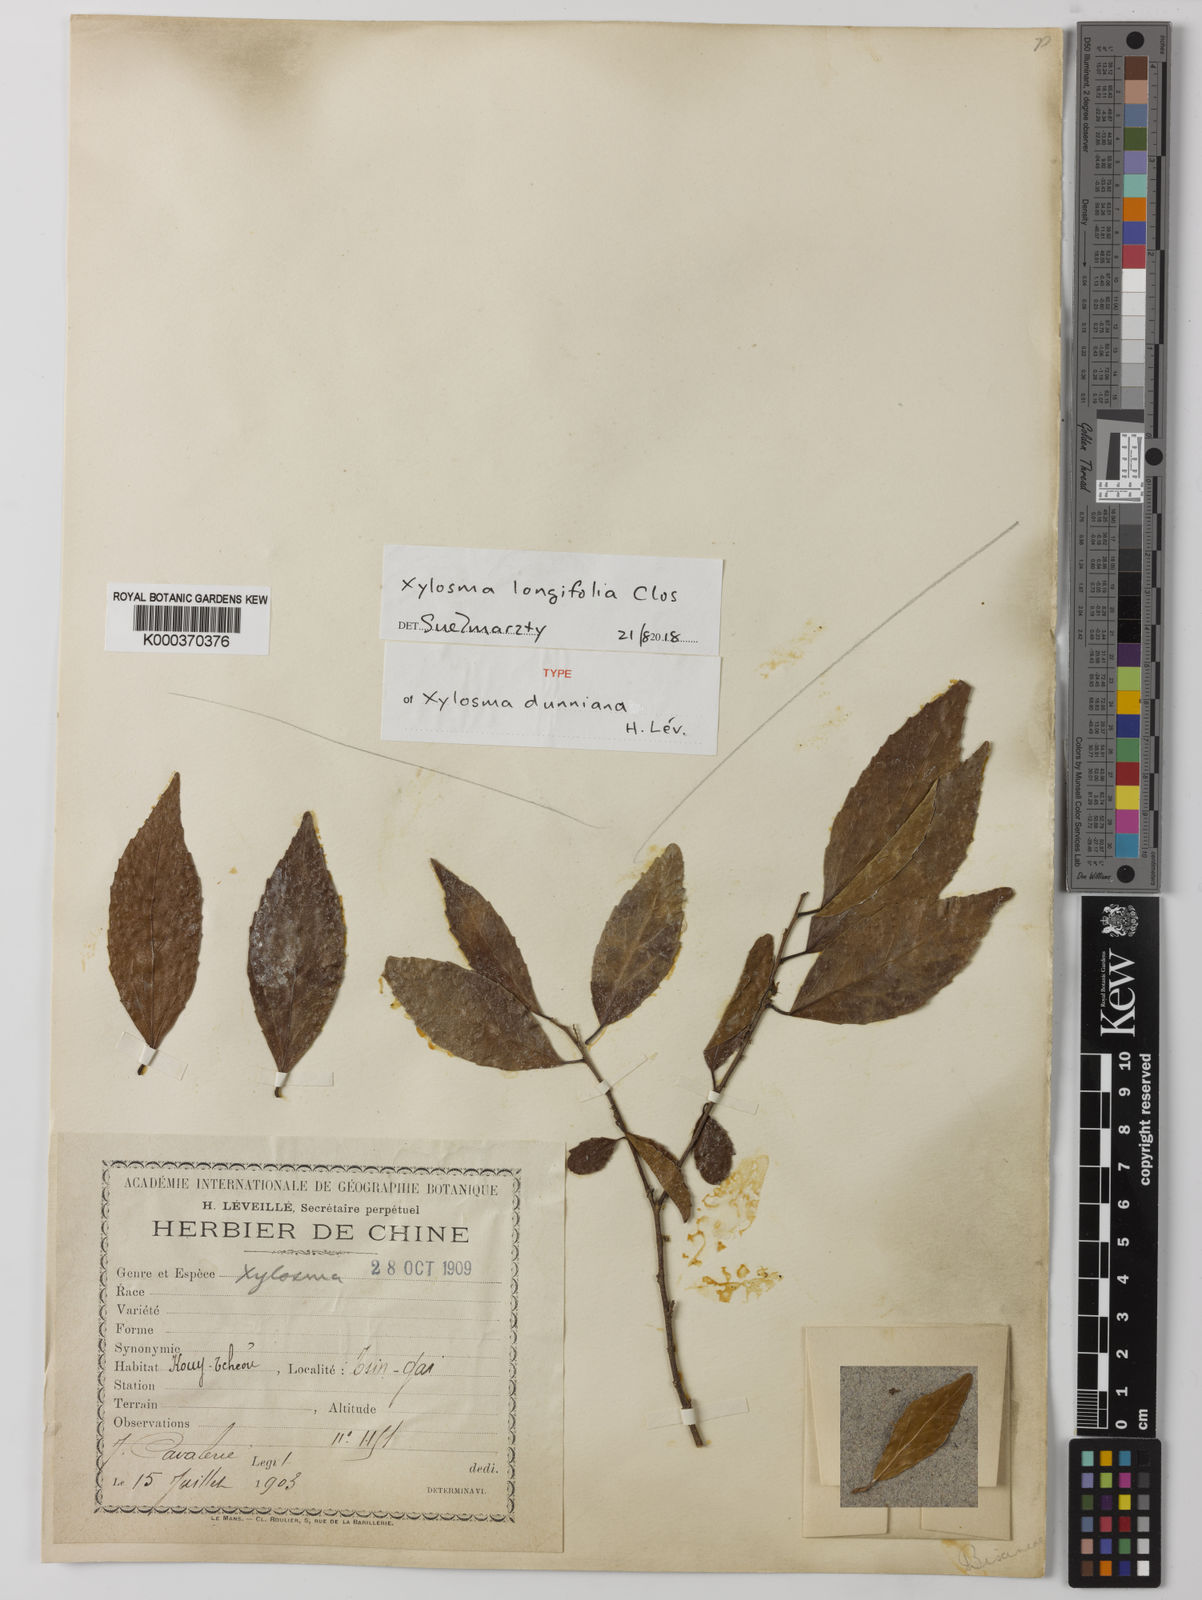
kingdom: Plantae
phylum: Tracheophyta
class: Magnoliopsida
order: Malpighiales
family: Salicaceae
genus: Xylosma
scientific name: Xylosma longifolia
